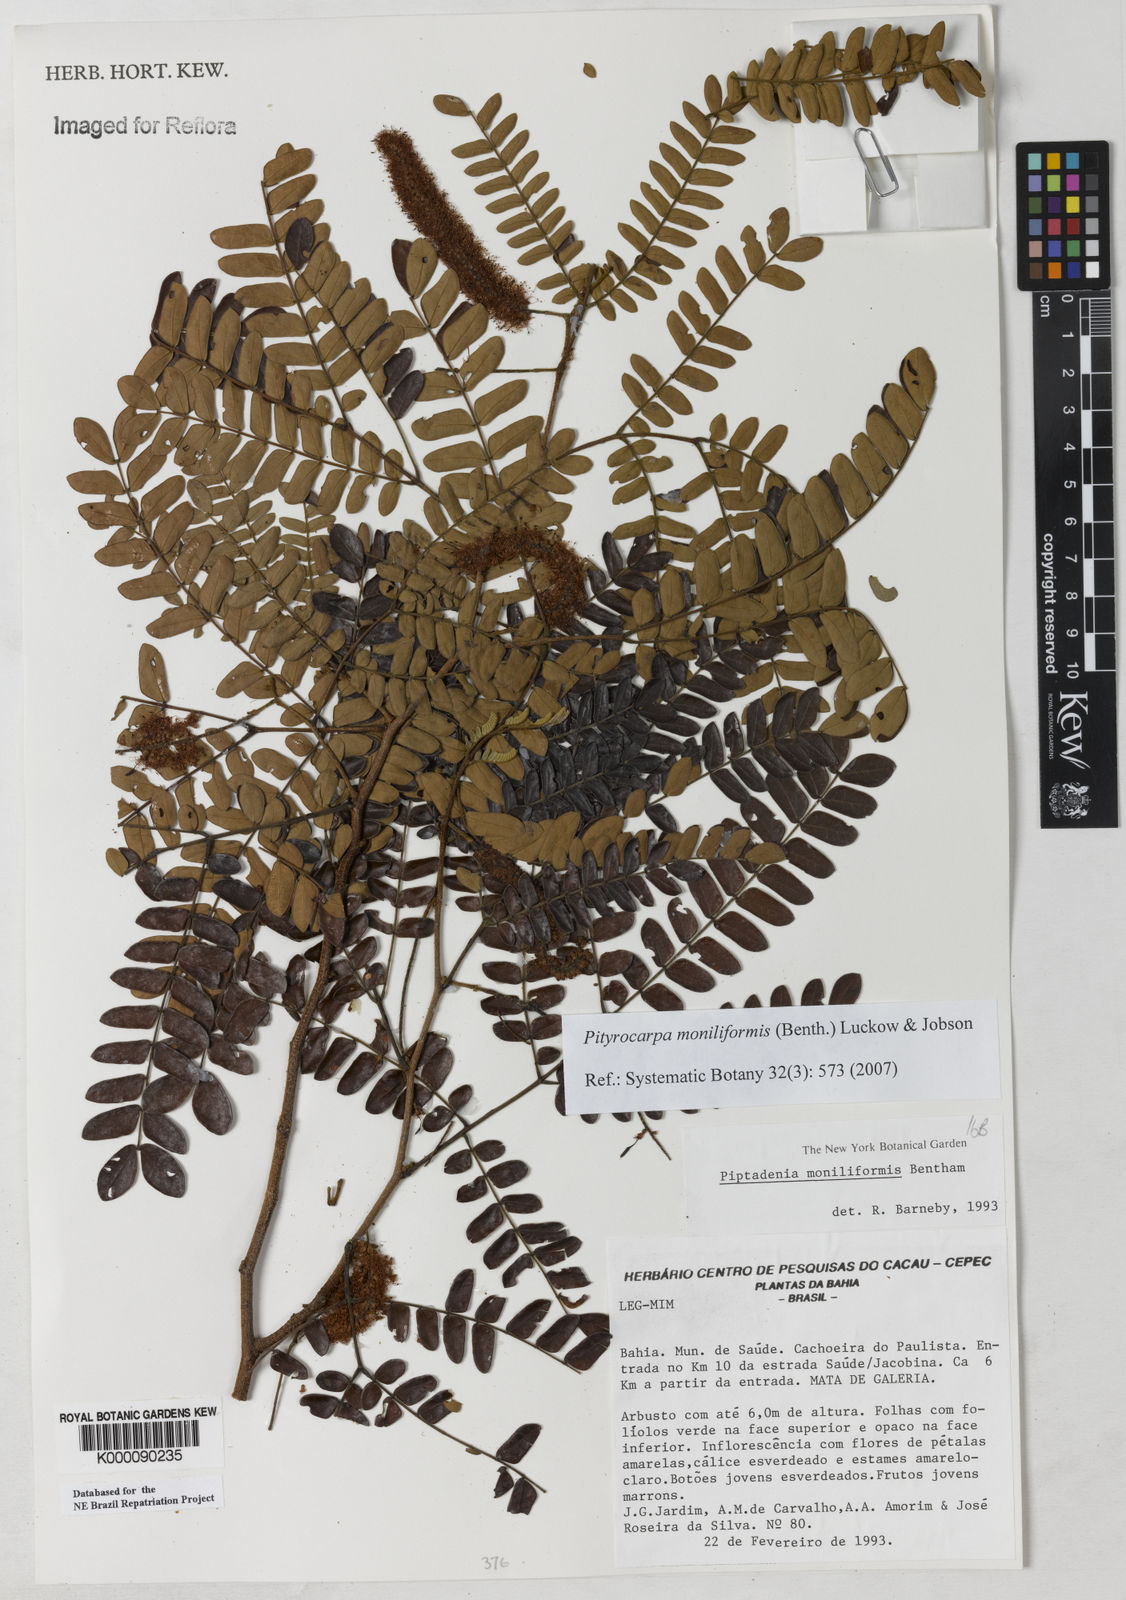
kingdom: Plantae
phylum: Tracheophyta
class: Magnoliopsida
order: Fabales
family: Fabaceae
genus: Pityrocarpa
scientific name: Pityrocarpa moniliformis
